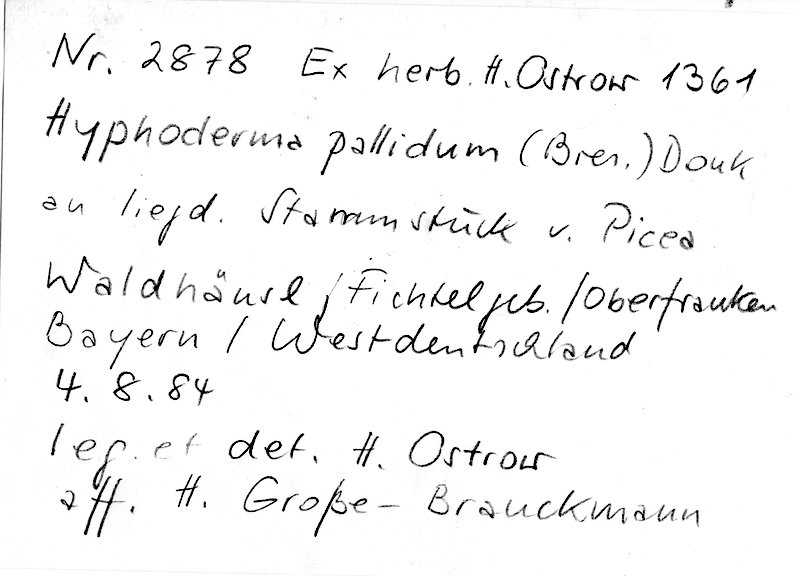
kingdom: Plantae
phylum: Tracheophyta
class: Pinopsida
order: Pinales
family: Pinaceae
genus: Picea
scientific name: Picea
